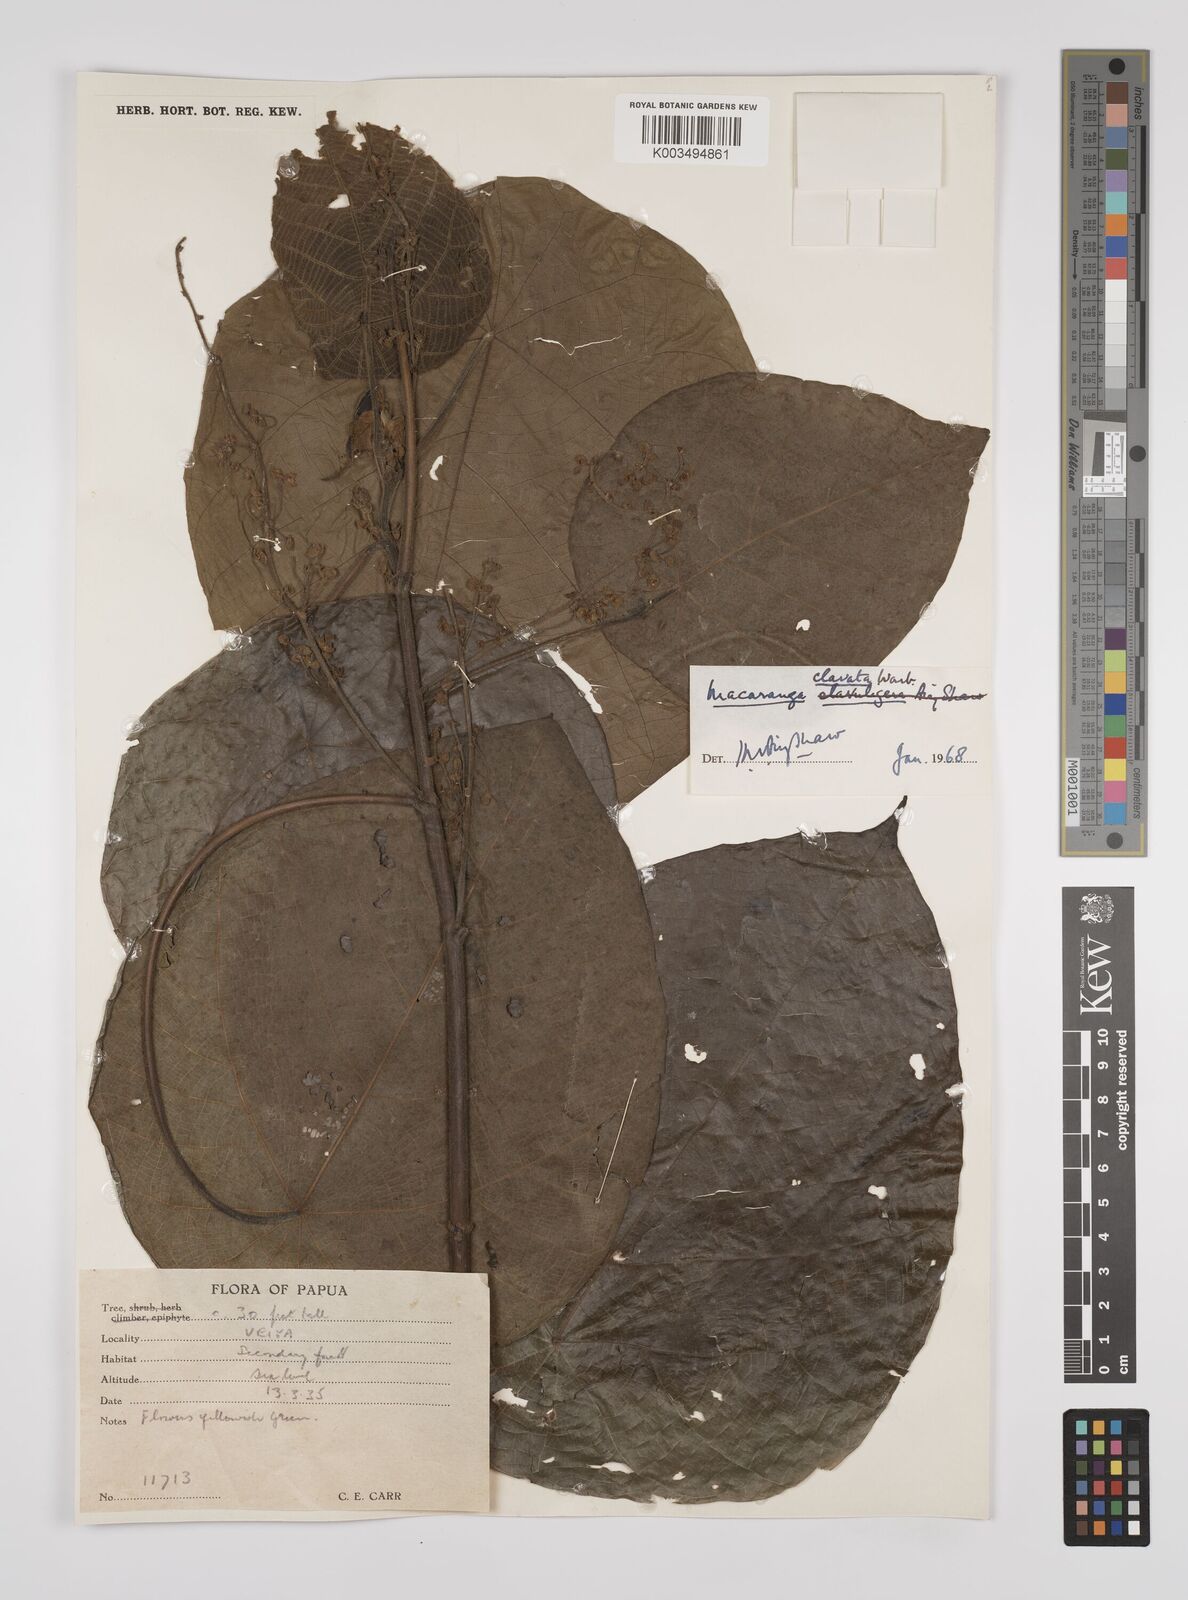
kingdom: Plantae
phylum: Tracheophyta
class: Magnoliopsida
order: Malpighiales
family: Euphorbiaceae
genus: Macaranga
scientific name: Macaranga clavata
